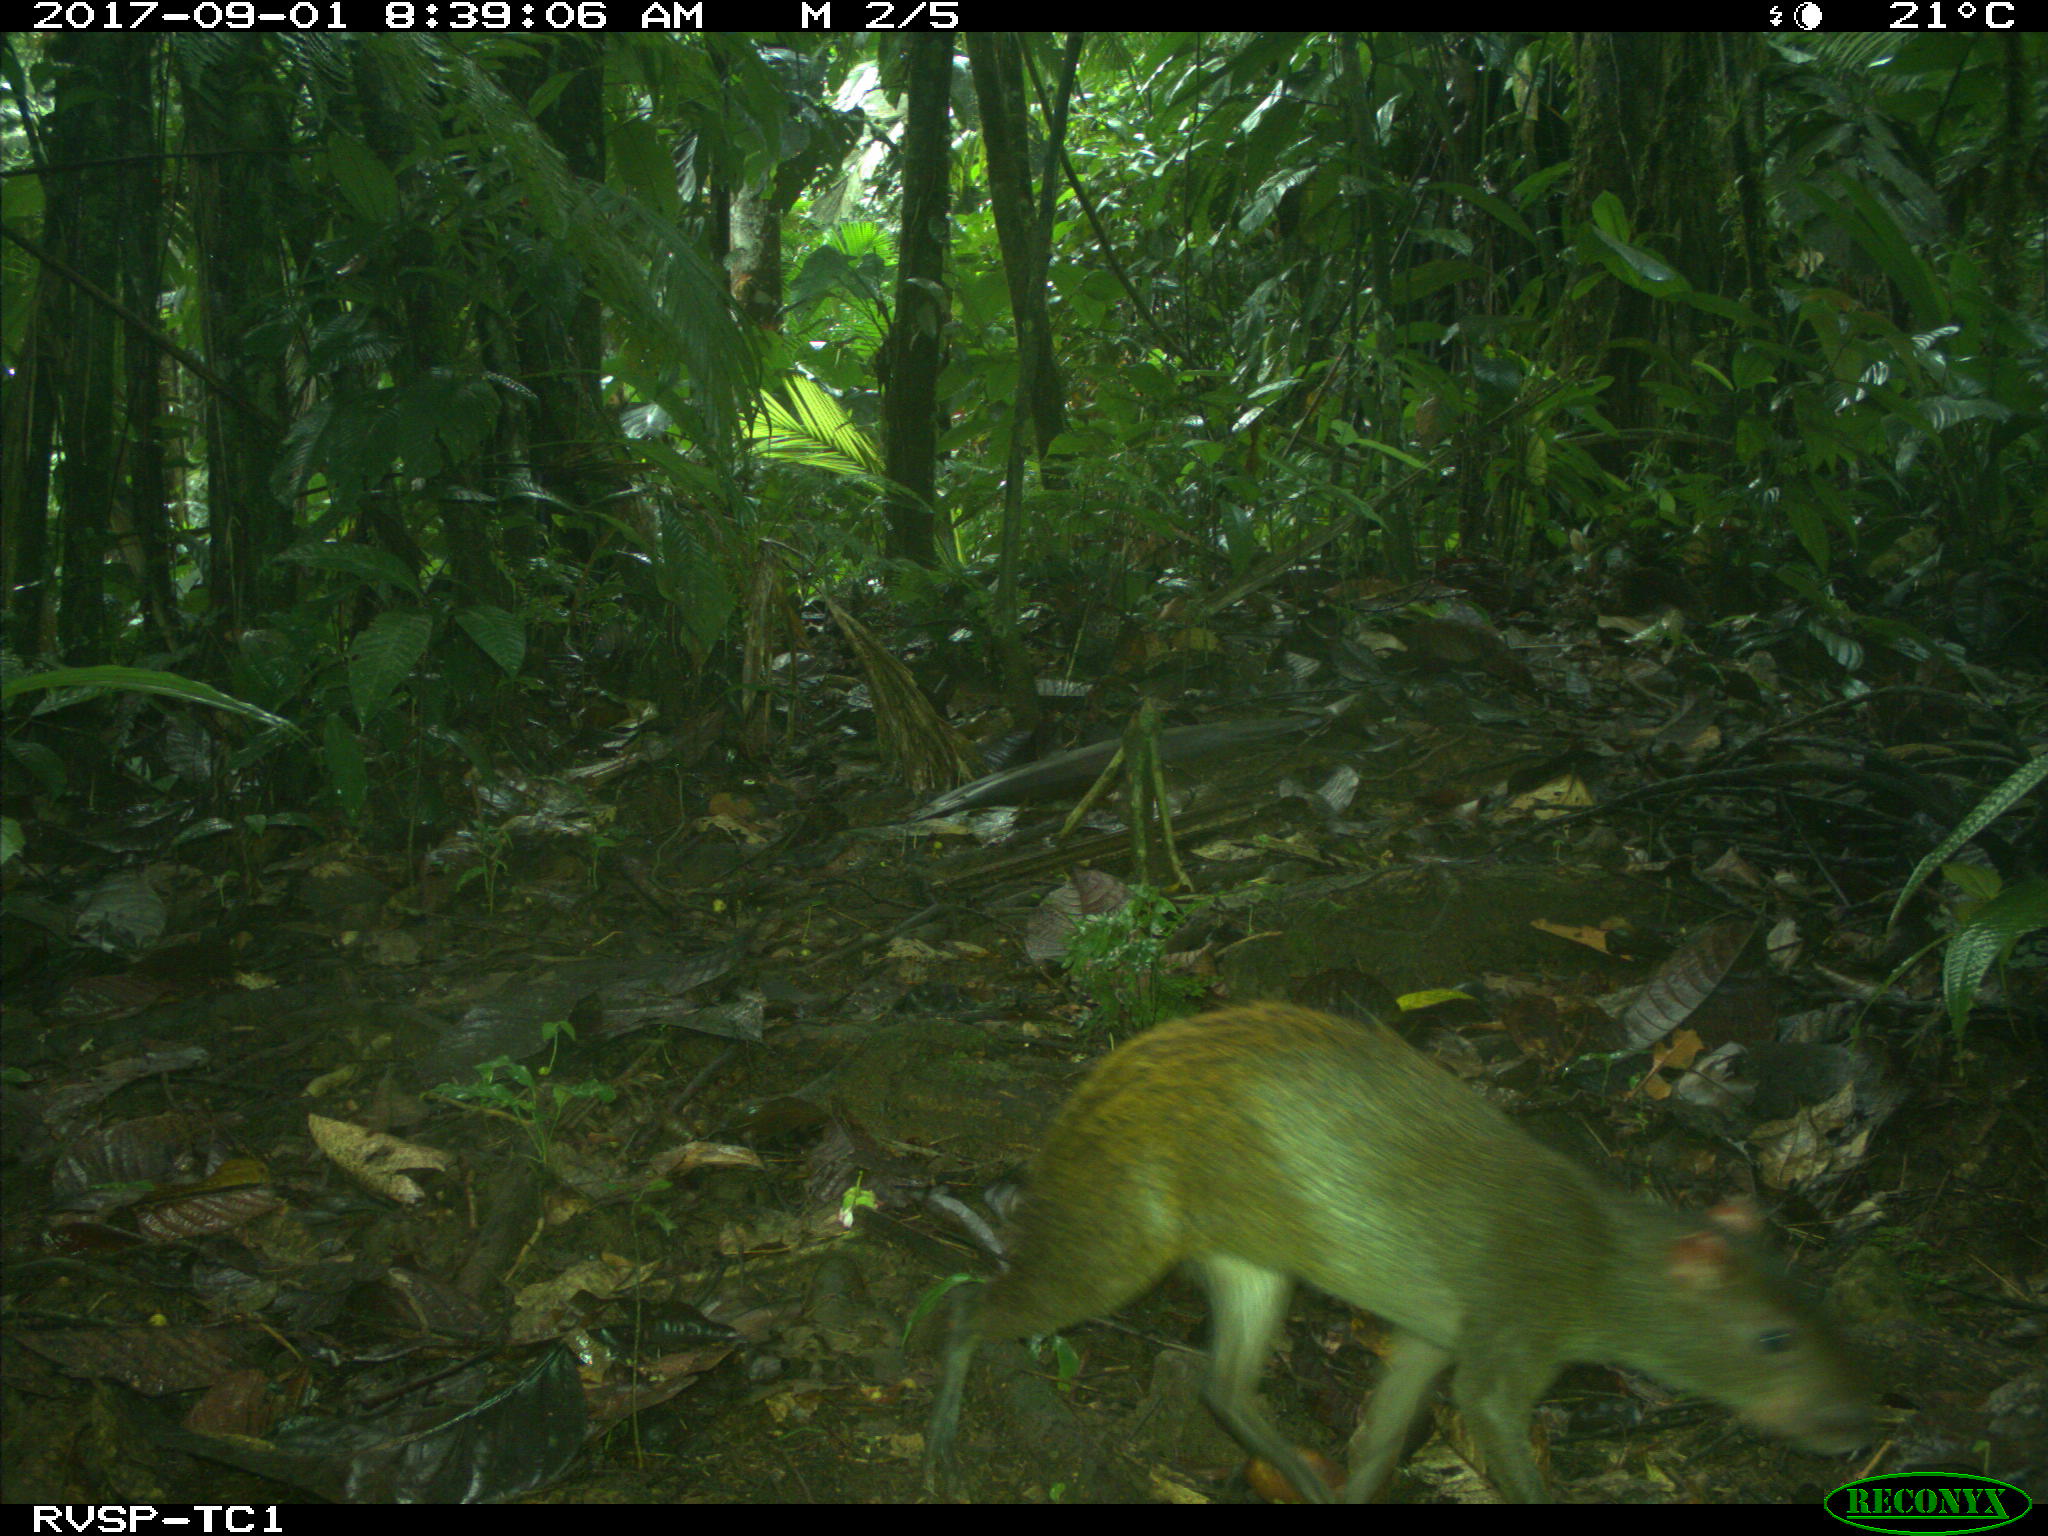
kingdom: Animalia
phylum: Chordata
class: Mammalia
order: Rodentia
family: Dasyproctidae
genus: Dasyprocta
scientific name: Dasyprocta punctata
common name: Central american agouti
